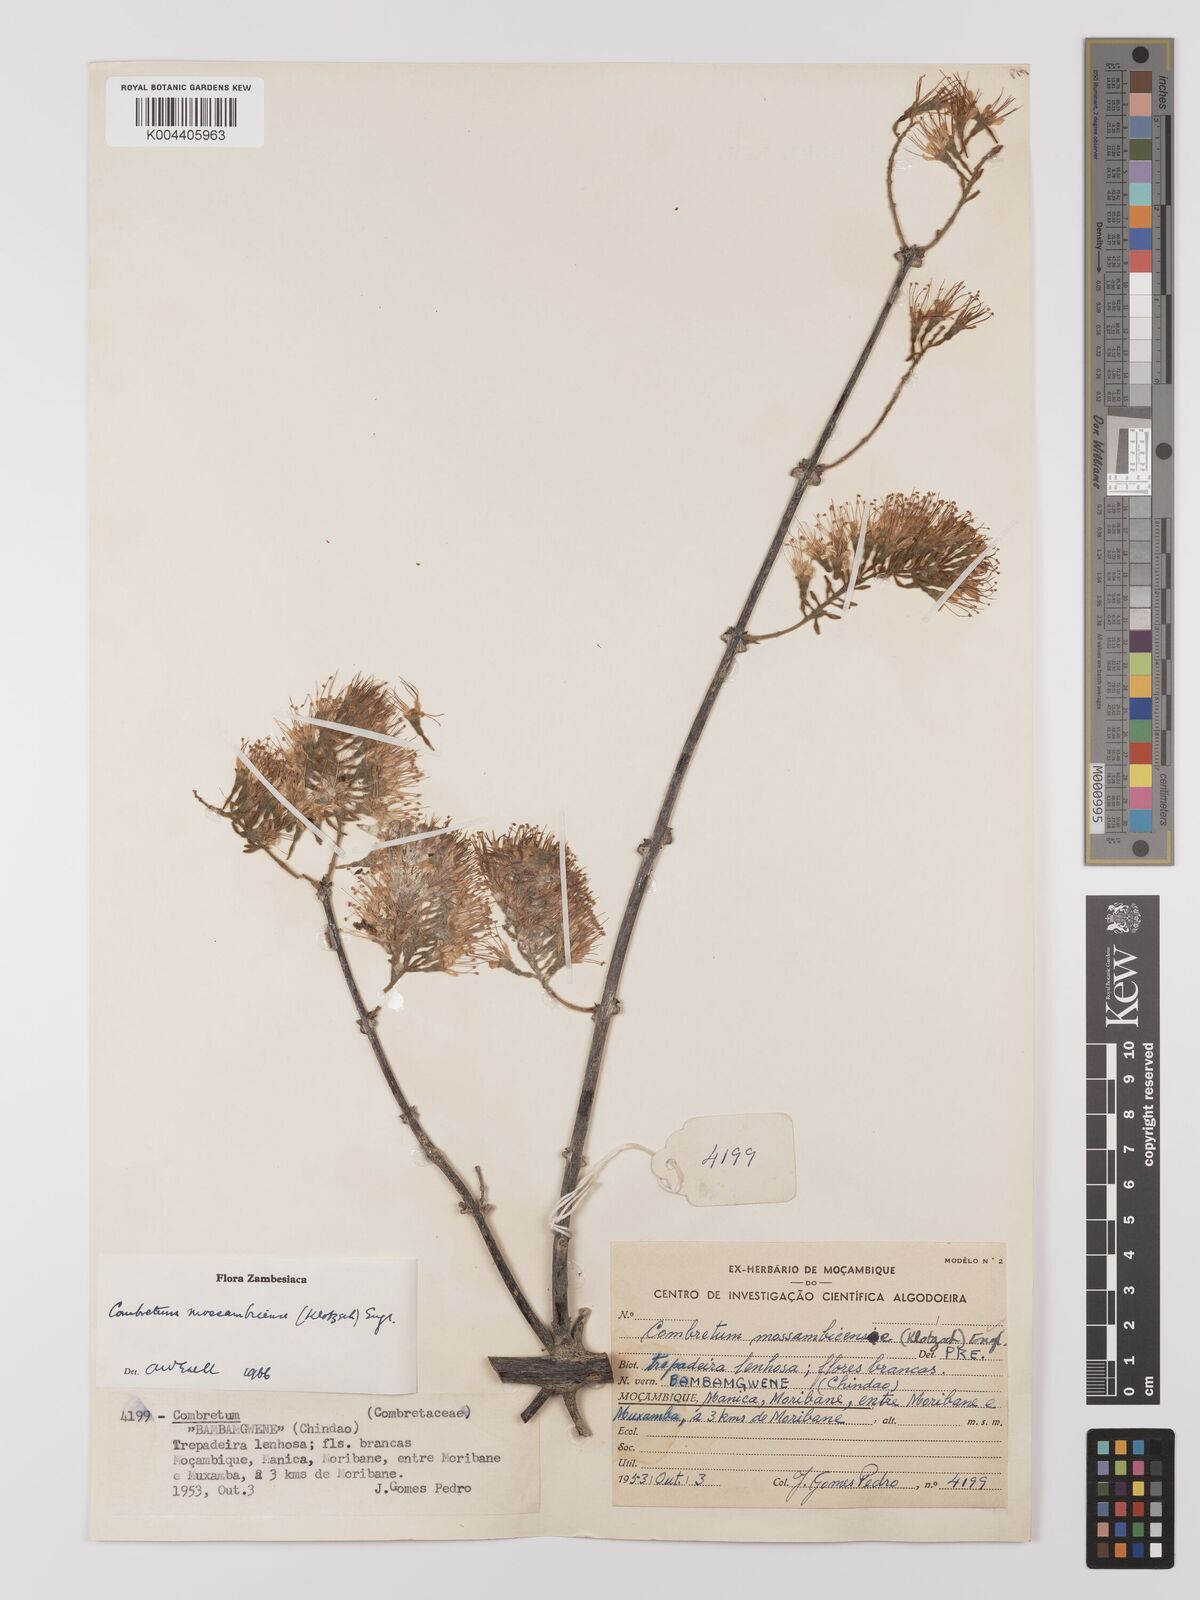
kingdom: Plantae
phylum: Tracheophyta
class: Magnoliopsida
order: Myrtales
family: Combretaceae
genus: Combretum
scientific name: Combretum mossambicense
